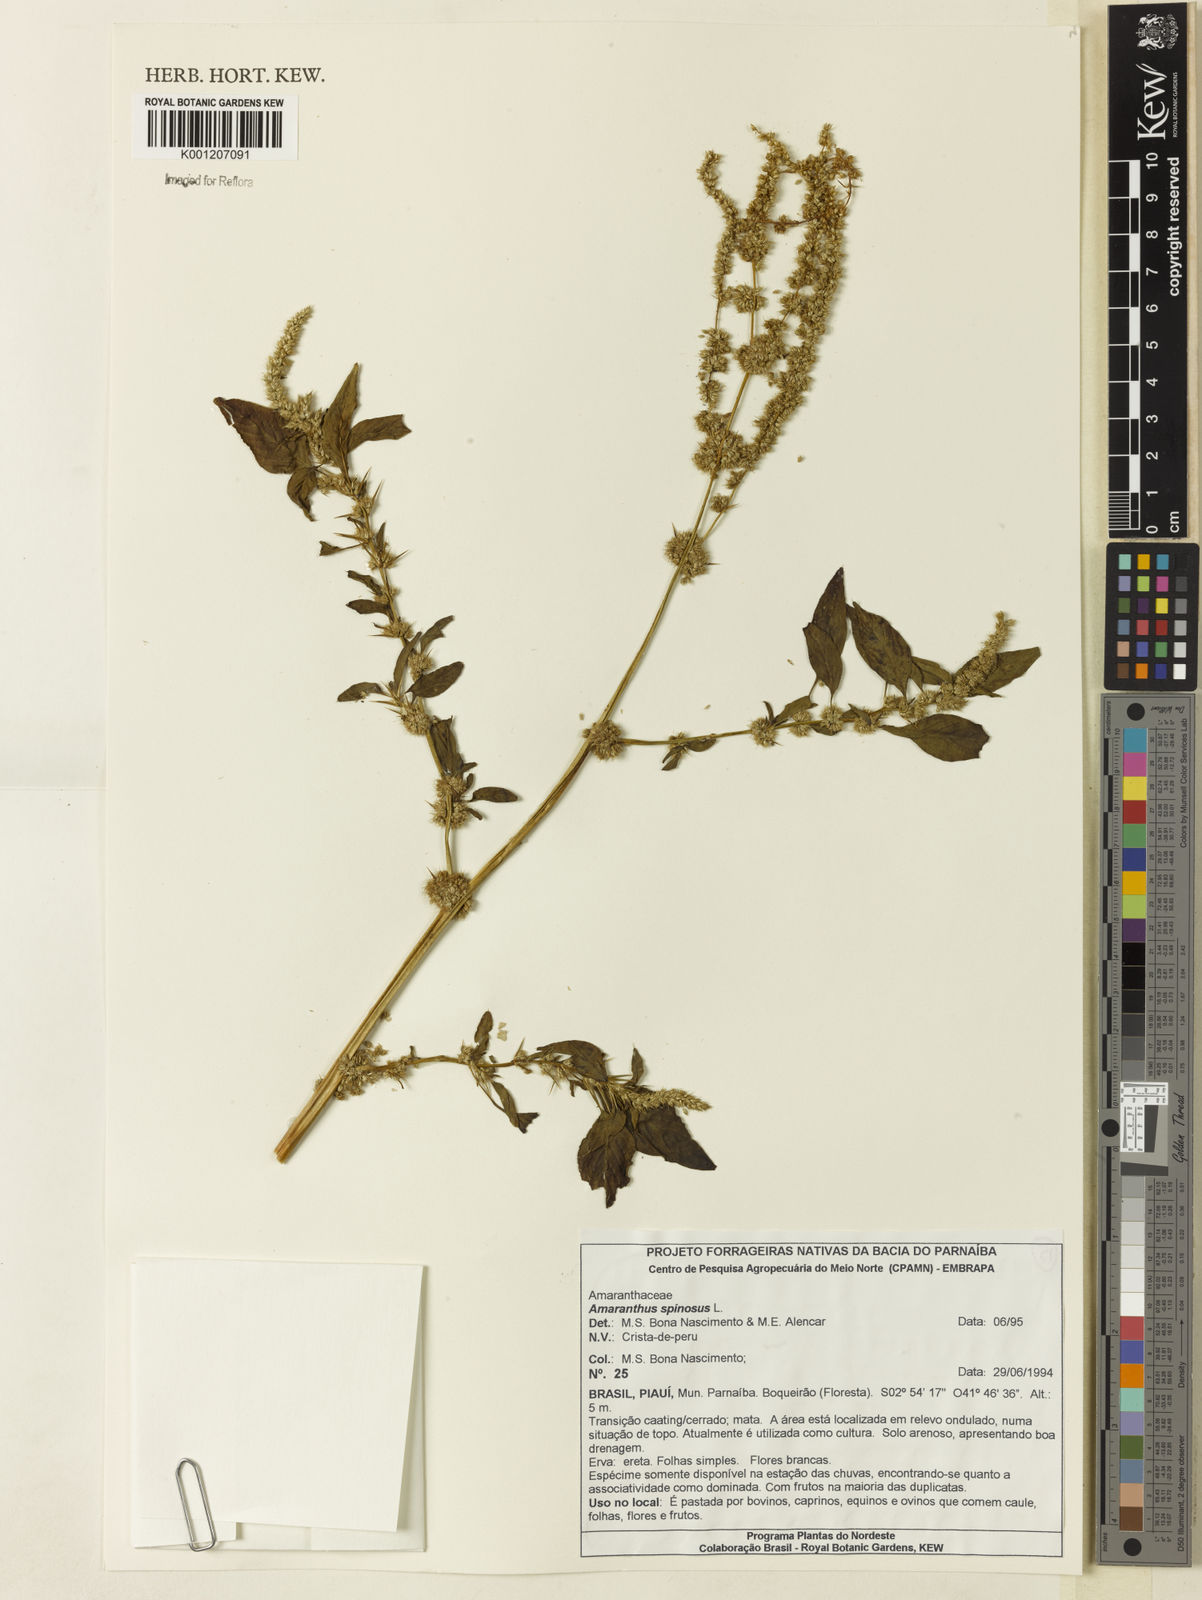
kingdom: Plantae
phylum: Tracheophyta
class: Magnoliopsida
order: Caryophyllales
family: Amaranthaceae
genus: Amaranthus
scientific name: Amaranthus spinosus
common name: Spiny amaranth
